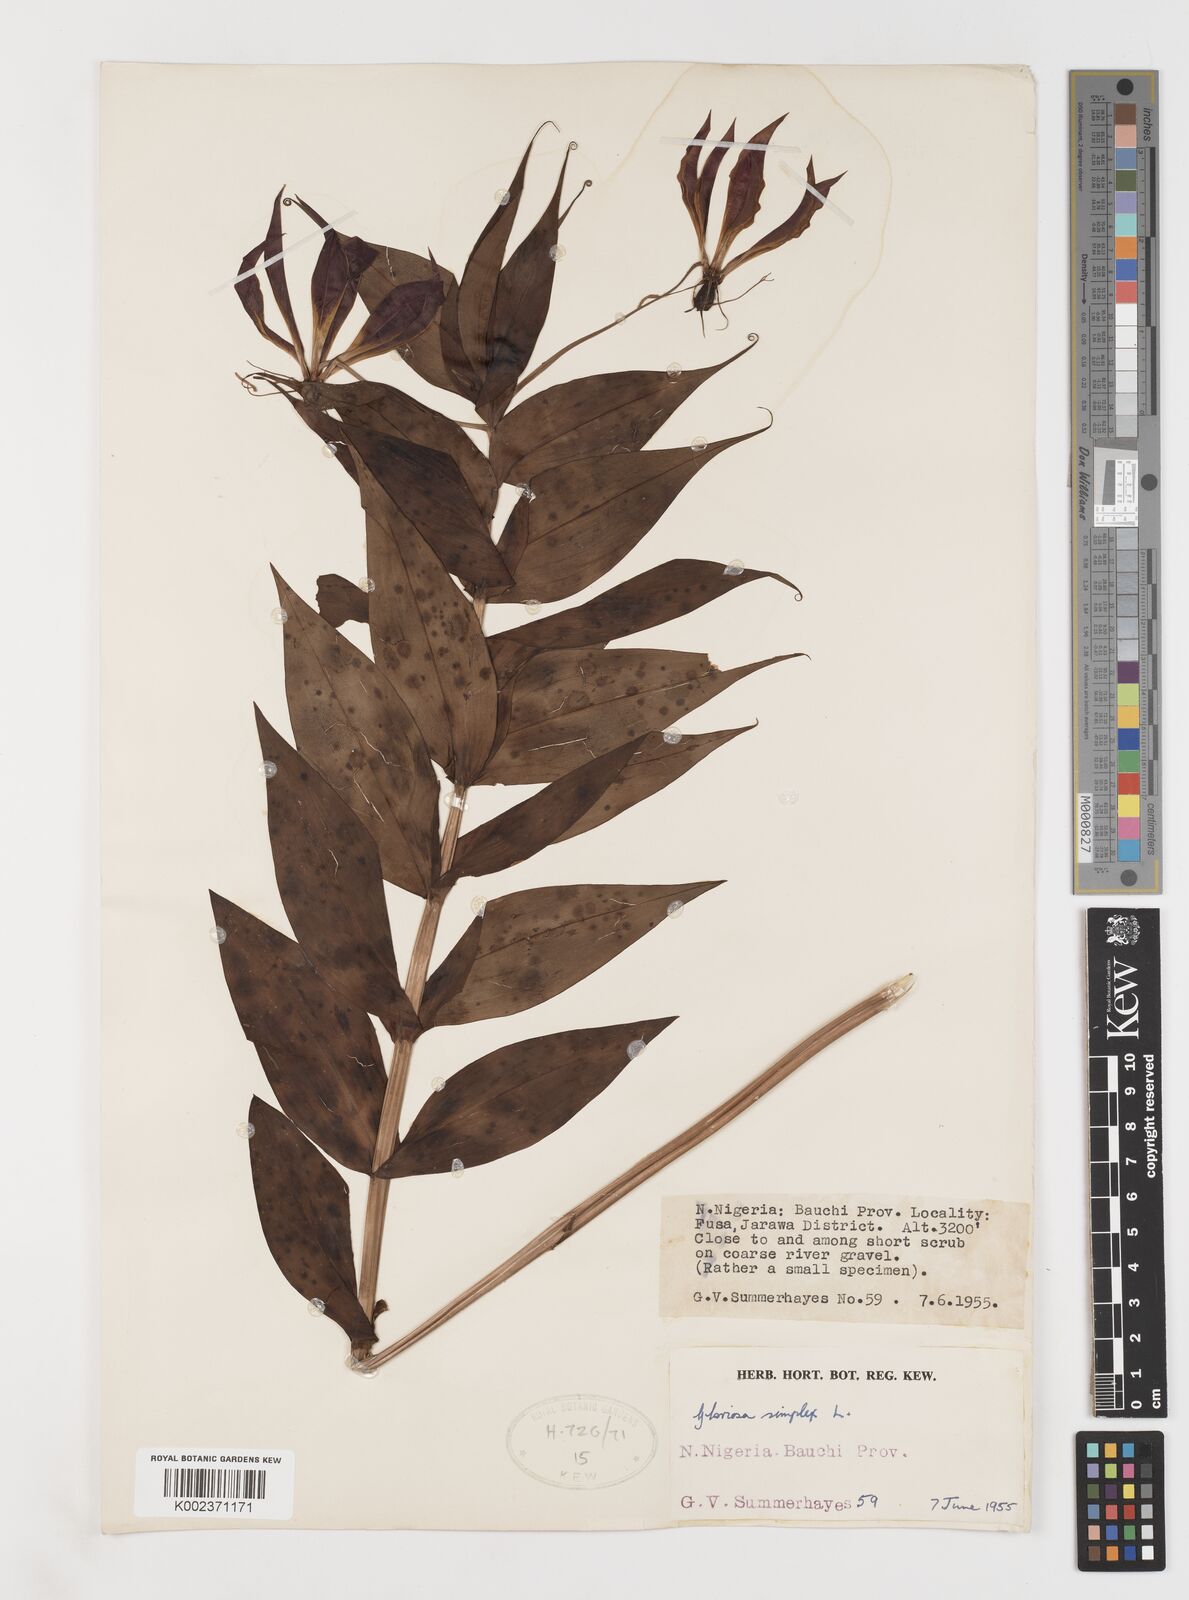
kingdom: Plantae
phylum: Tracheophyta
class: Liliopsida
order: Liliales
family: Colchicaceae
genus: Gloriosa
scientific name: Gloriosa simplex
